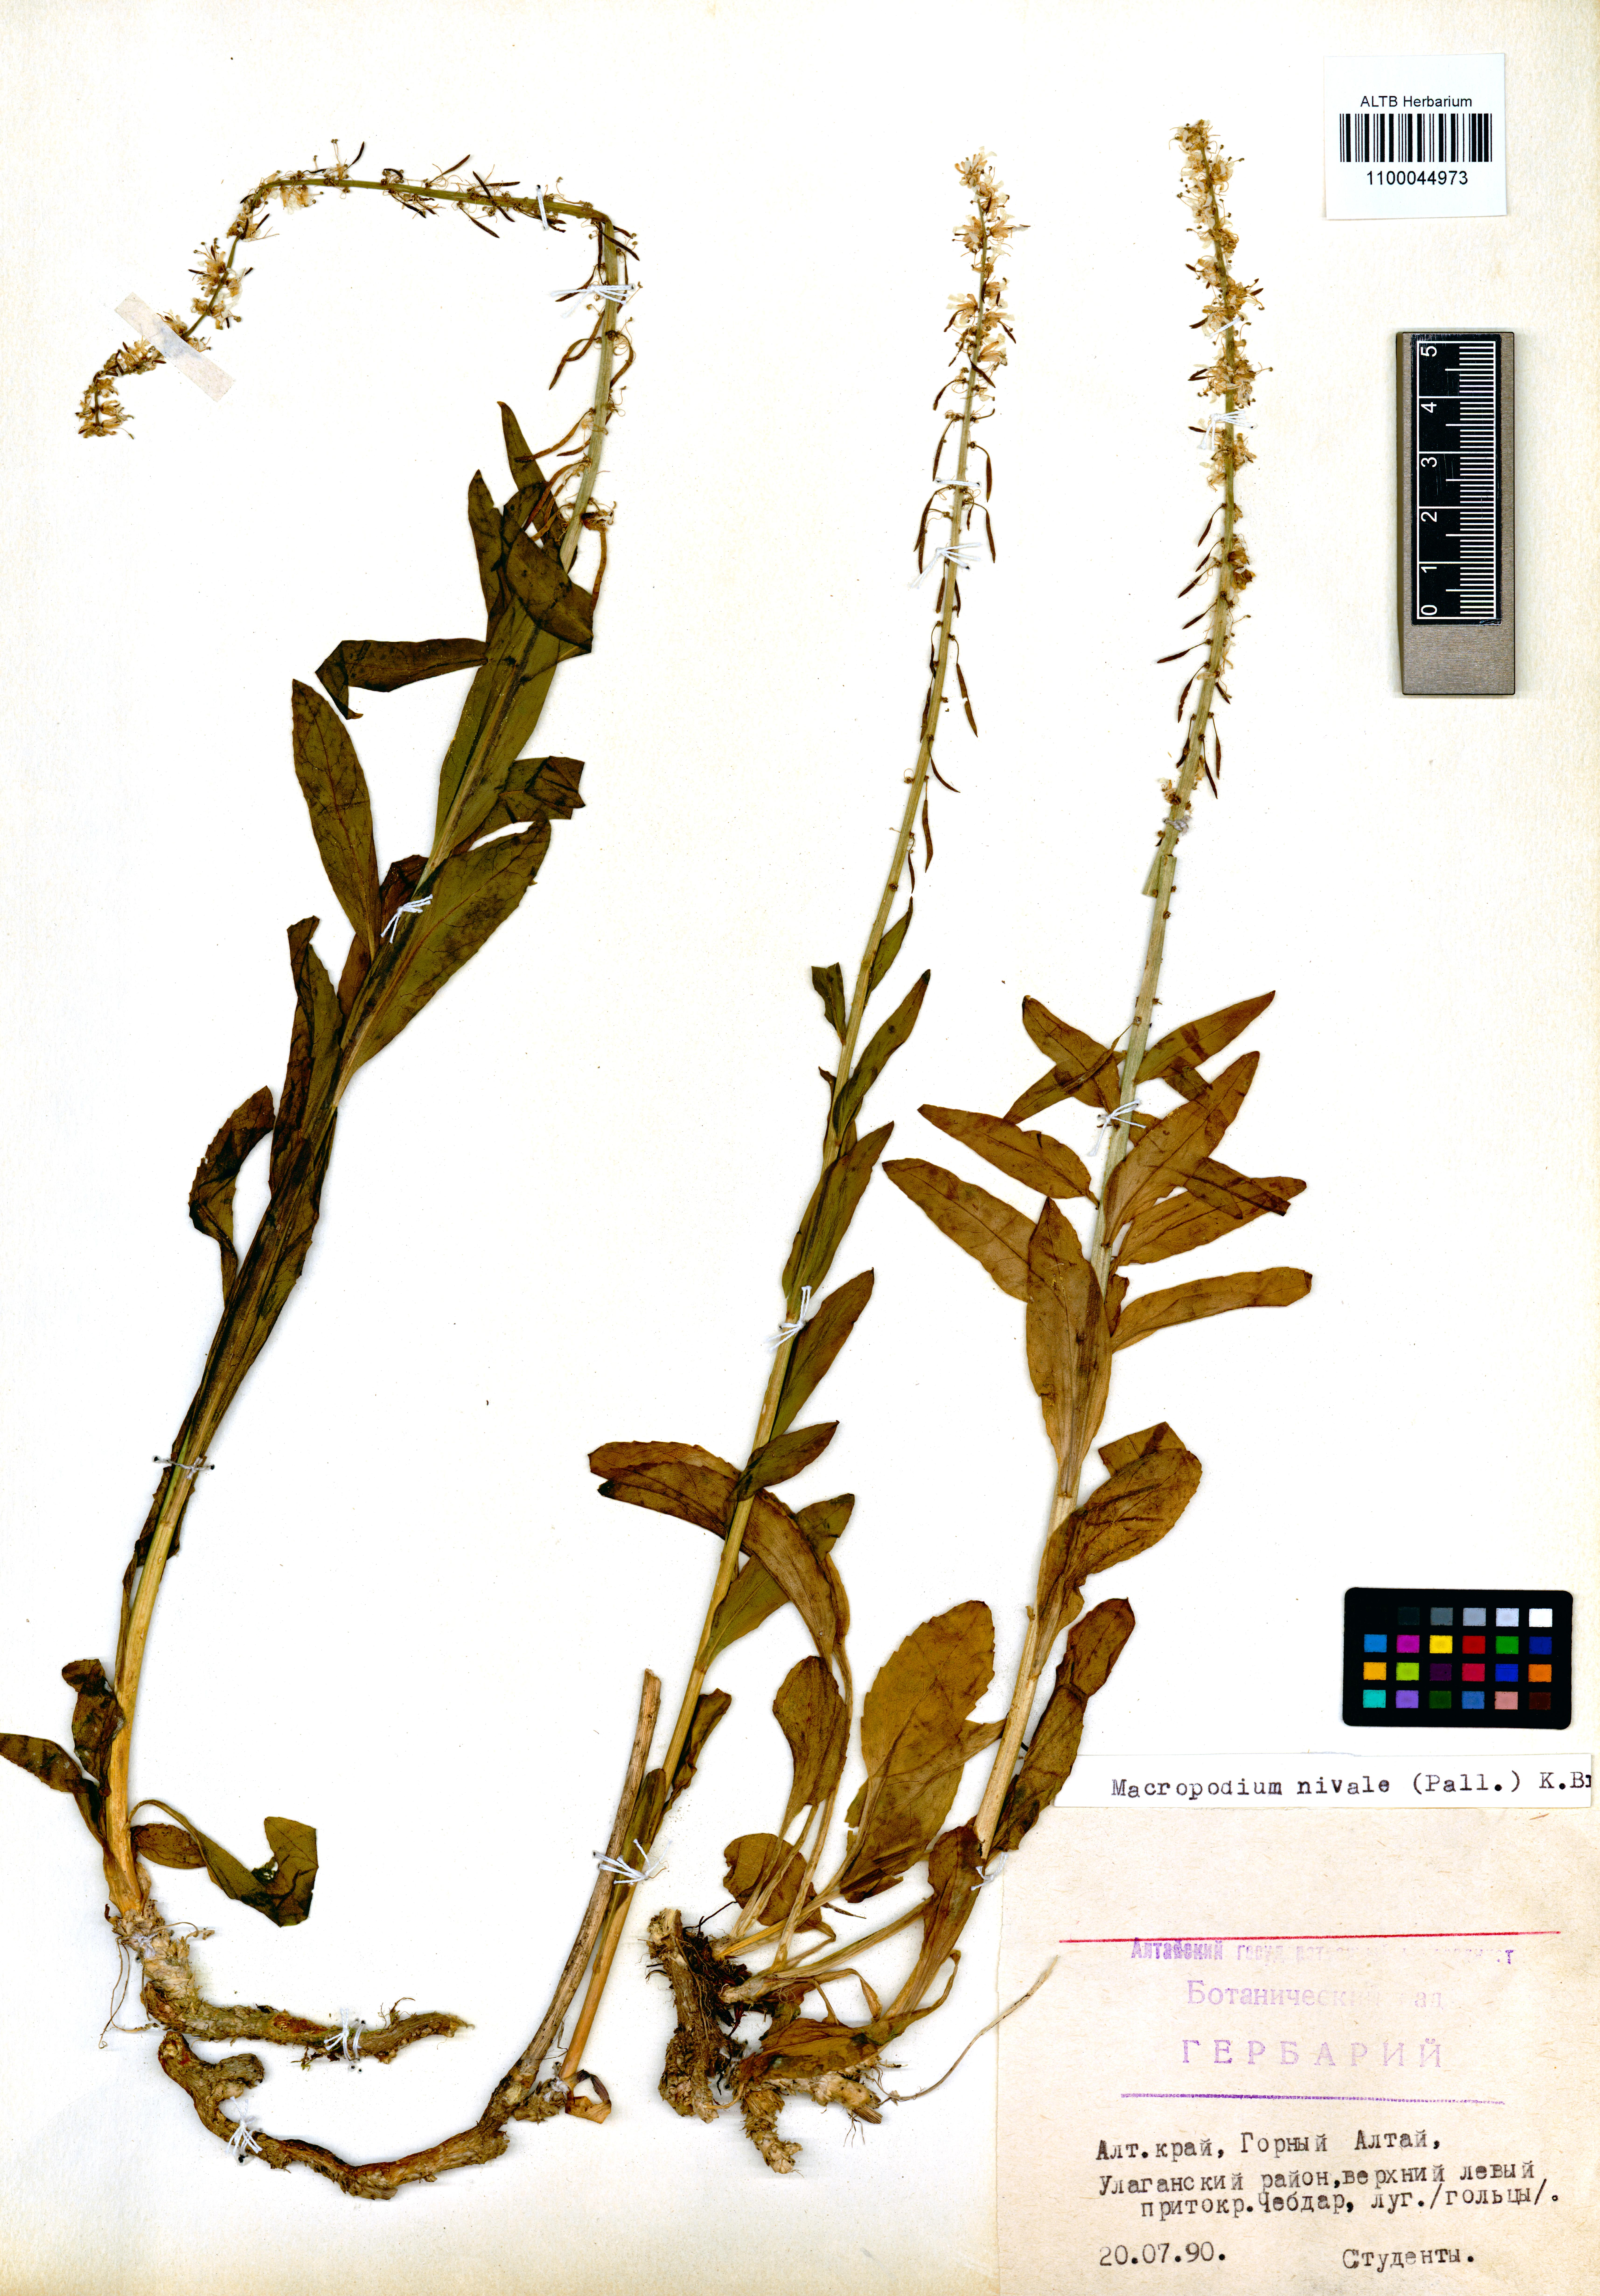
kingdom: Plantae
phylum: Tracheophyta
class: Magnoliopsida
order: Brassicales
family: Brassicaceae
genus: Macropodium
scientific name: Macropodium nivale
